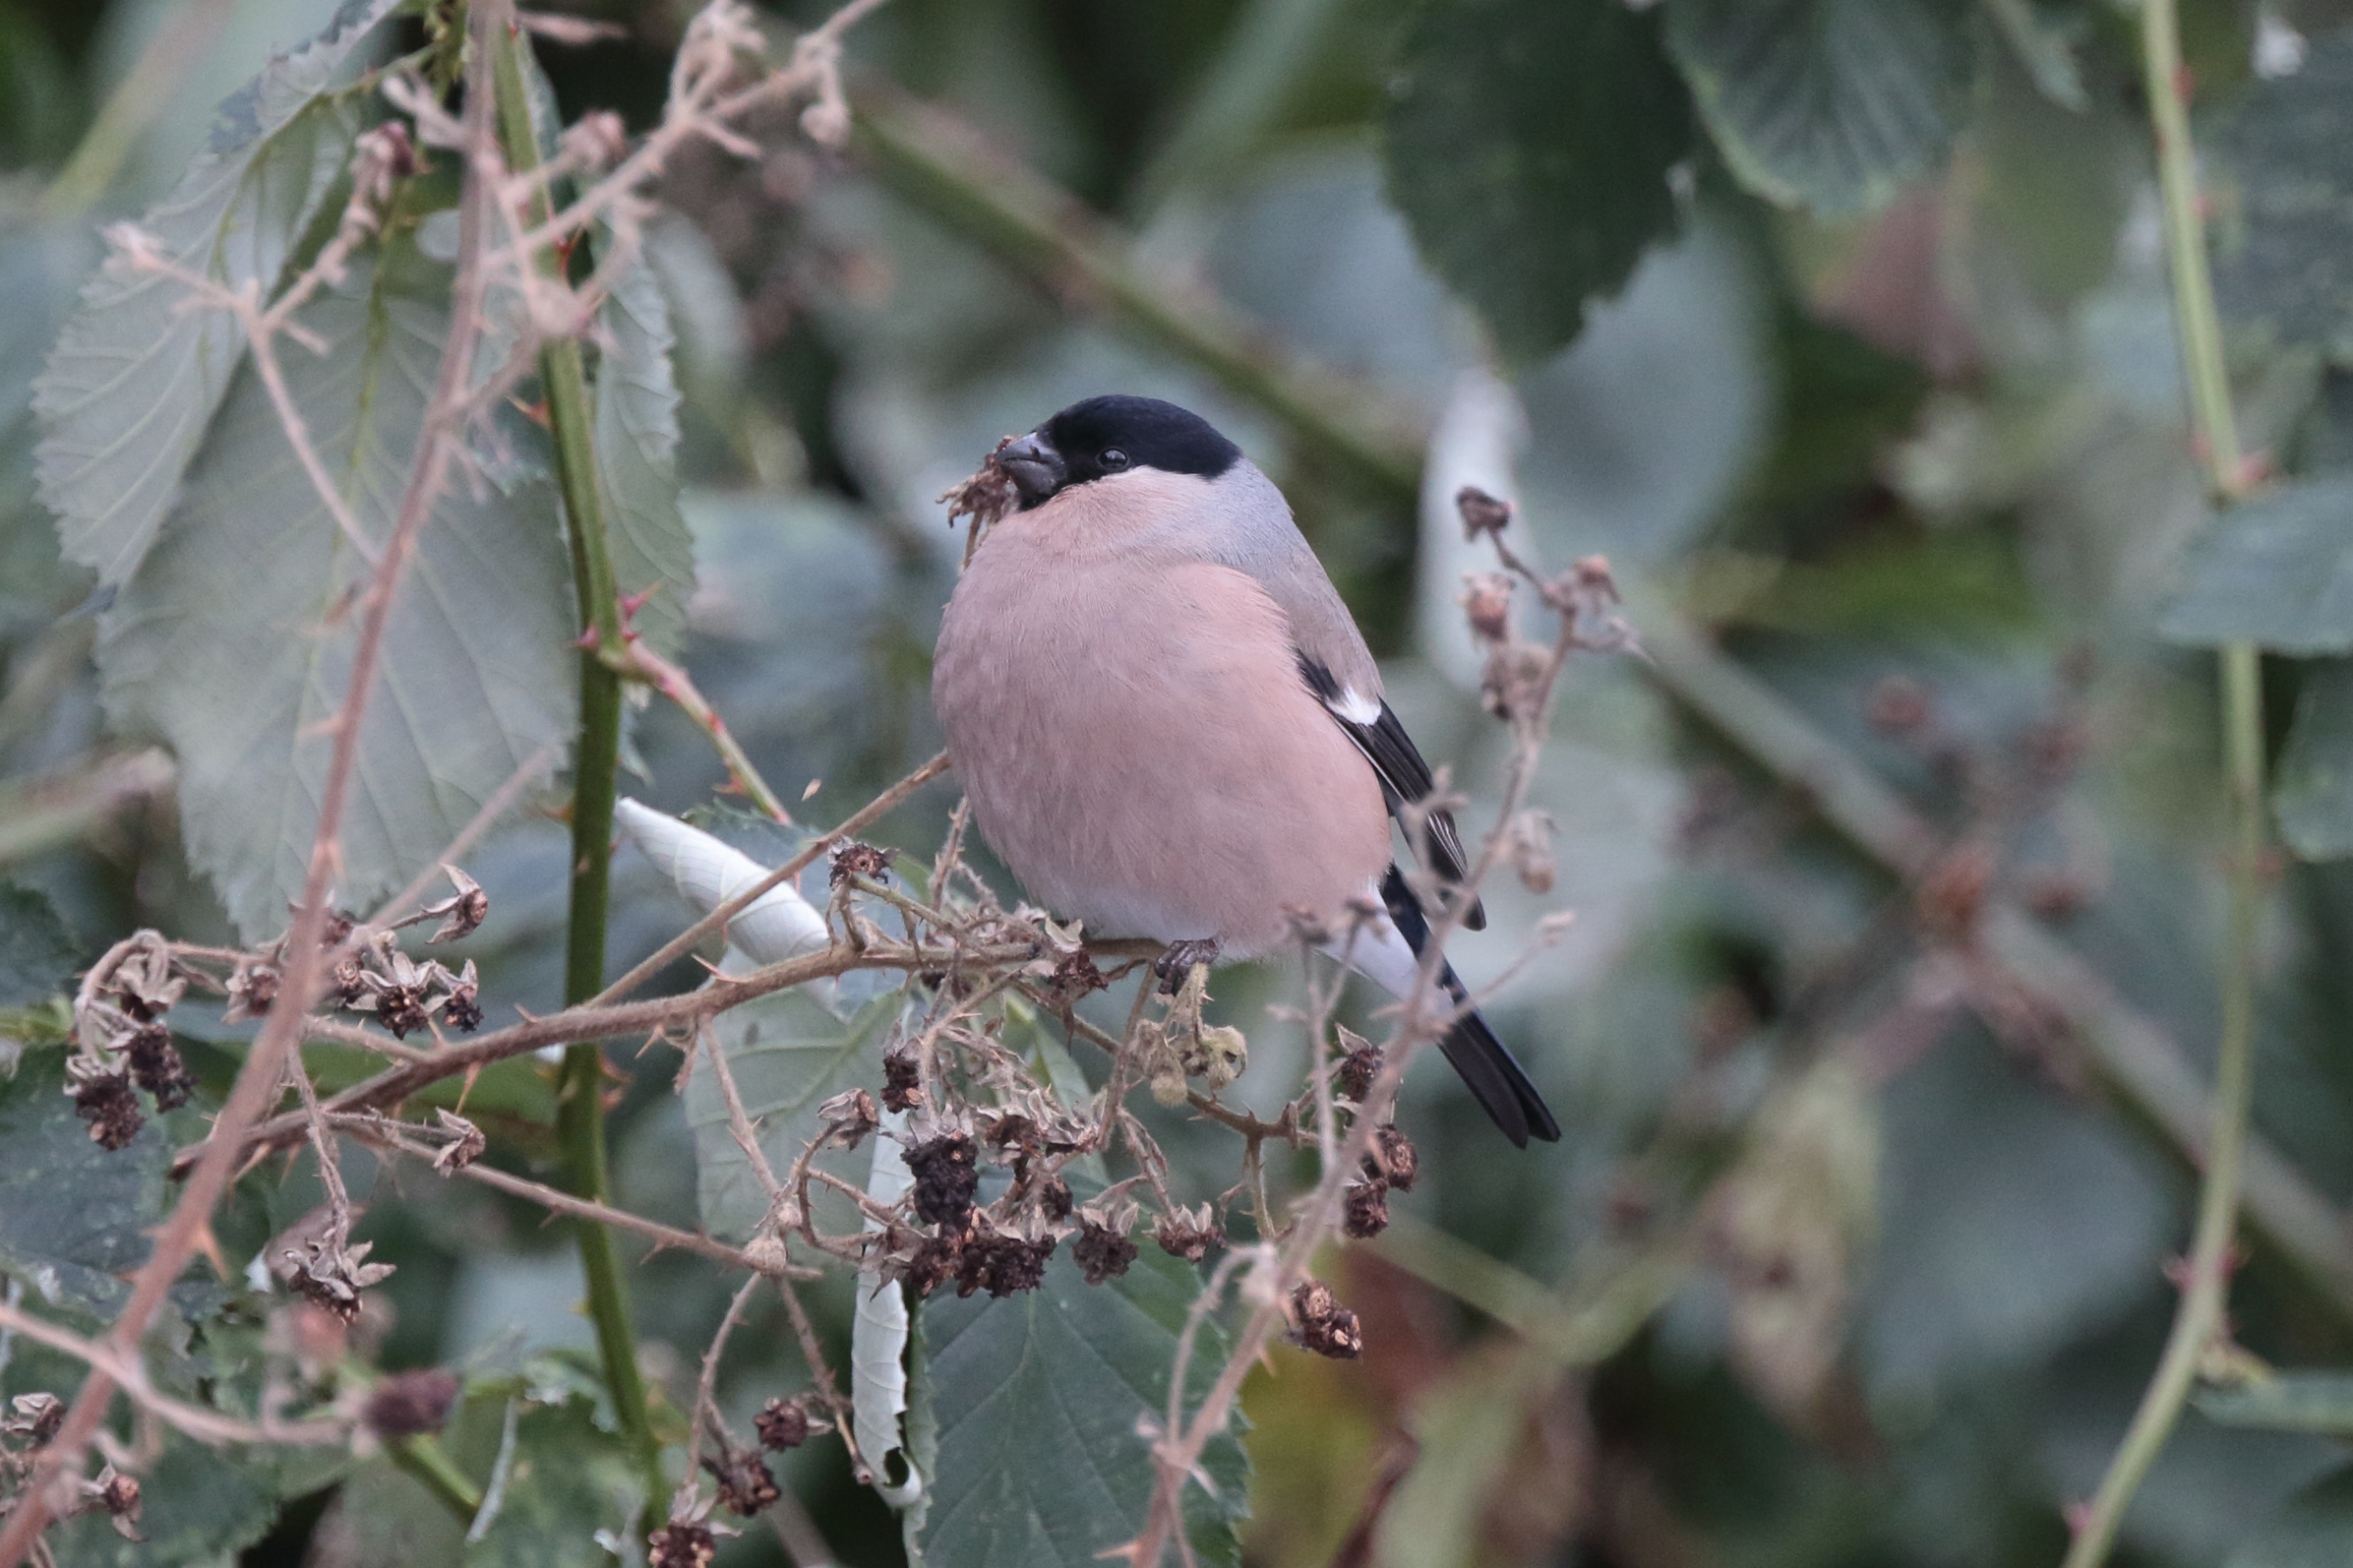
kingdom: Animalia
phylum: Chordata
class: Aves
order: Passeriformes
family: Fringillidae
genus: Pyrrhula
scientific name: Pyrrhula pyrrhula
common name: Dompap
